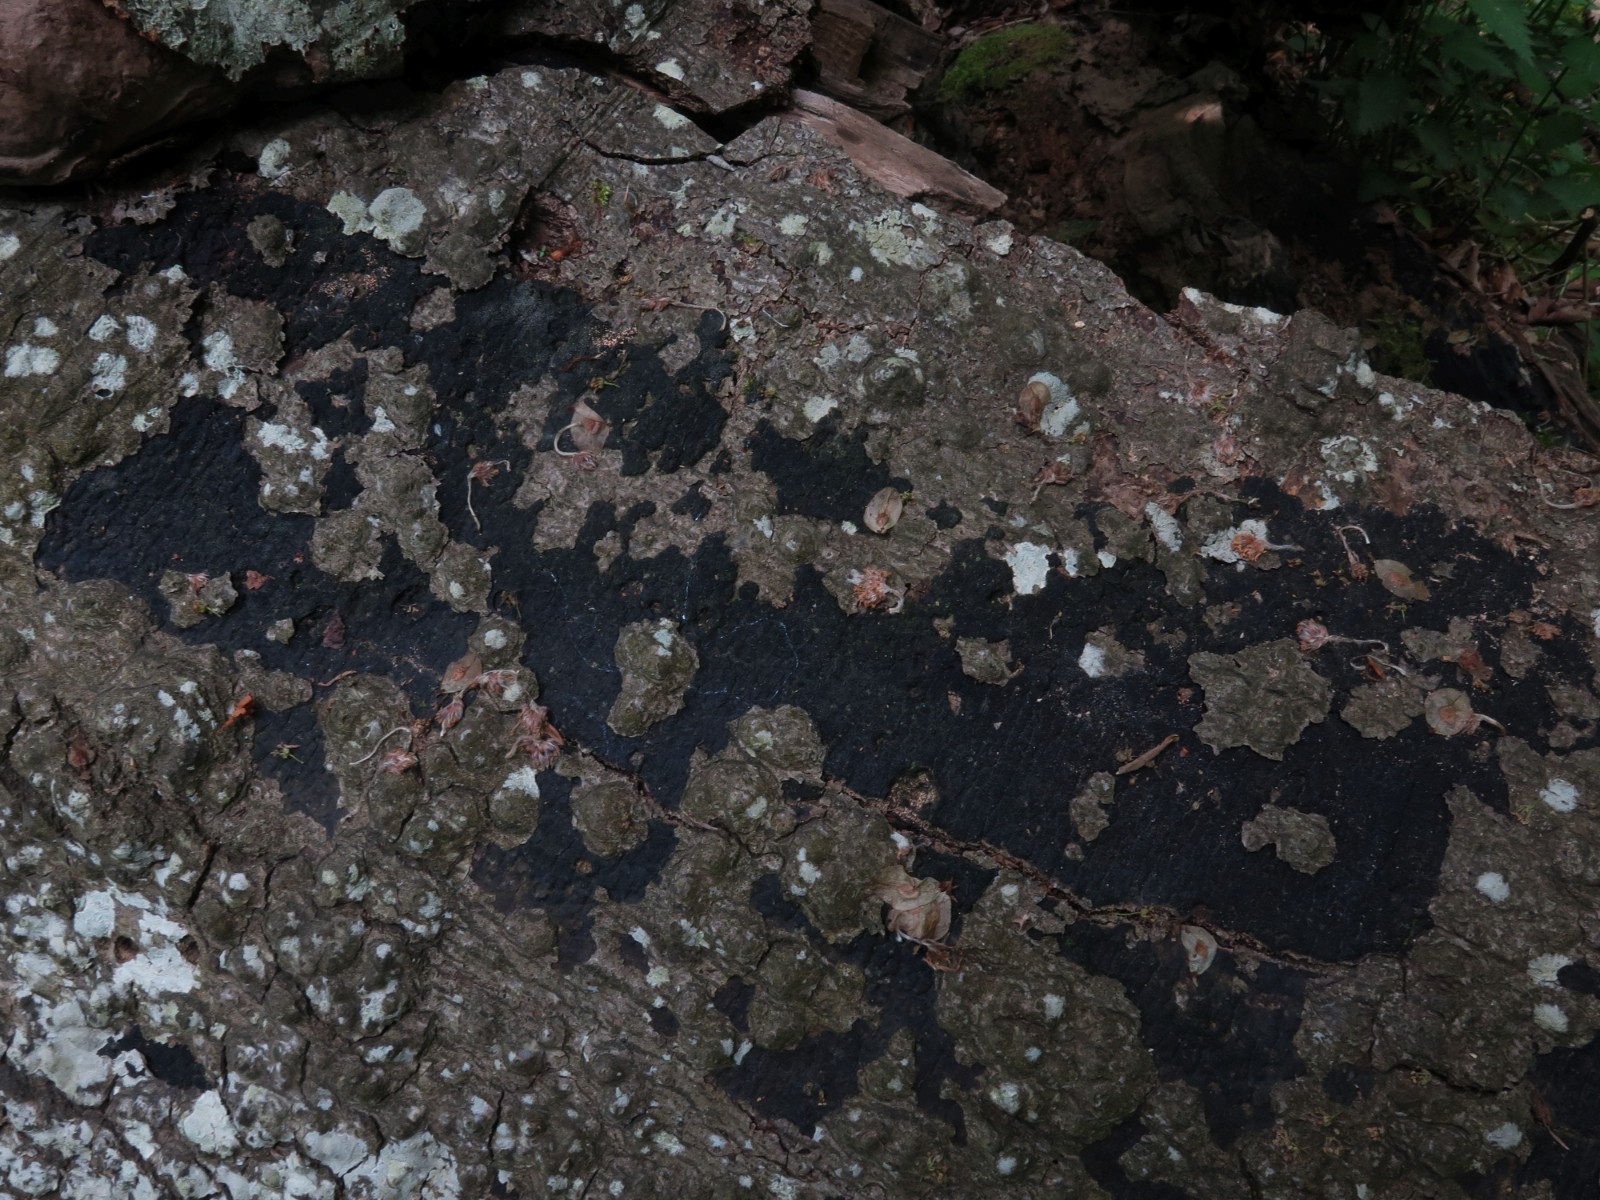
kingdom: Fungi
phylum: Ascomycota
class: Sordariomycetes
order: Xylariales
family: Diatrypaceae
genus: Eutypa
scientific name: Eutypa spinosa
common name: grov kulskorpe
